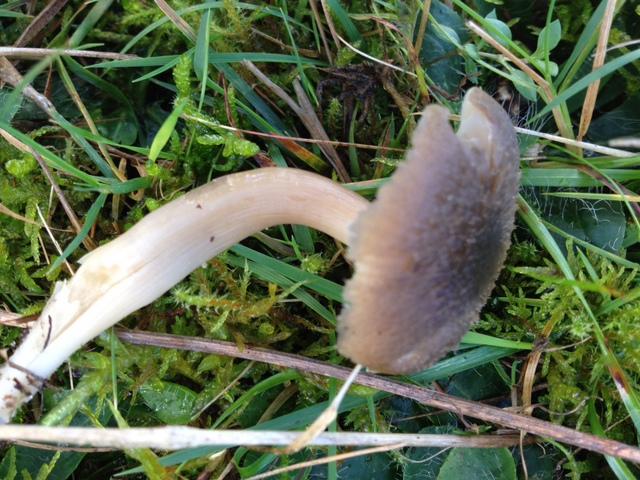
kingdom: Fungi
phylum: Basidiomycota
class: Agaricomycetes
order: Agaricales
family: Hygrophoraceae
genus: Neohygrocybe
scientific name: Neohygrocybe nitrata
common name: stinkende vokshat
